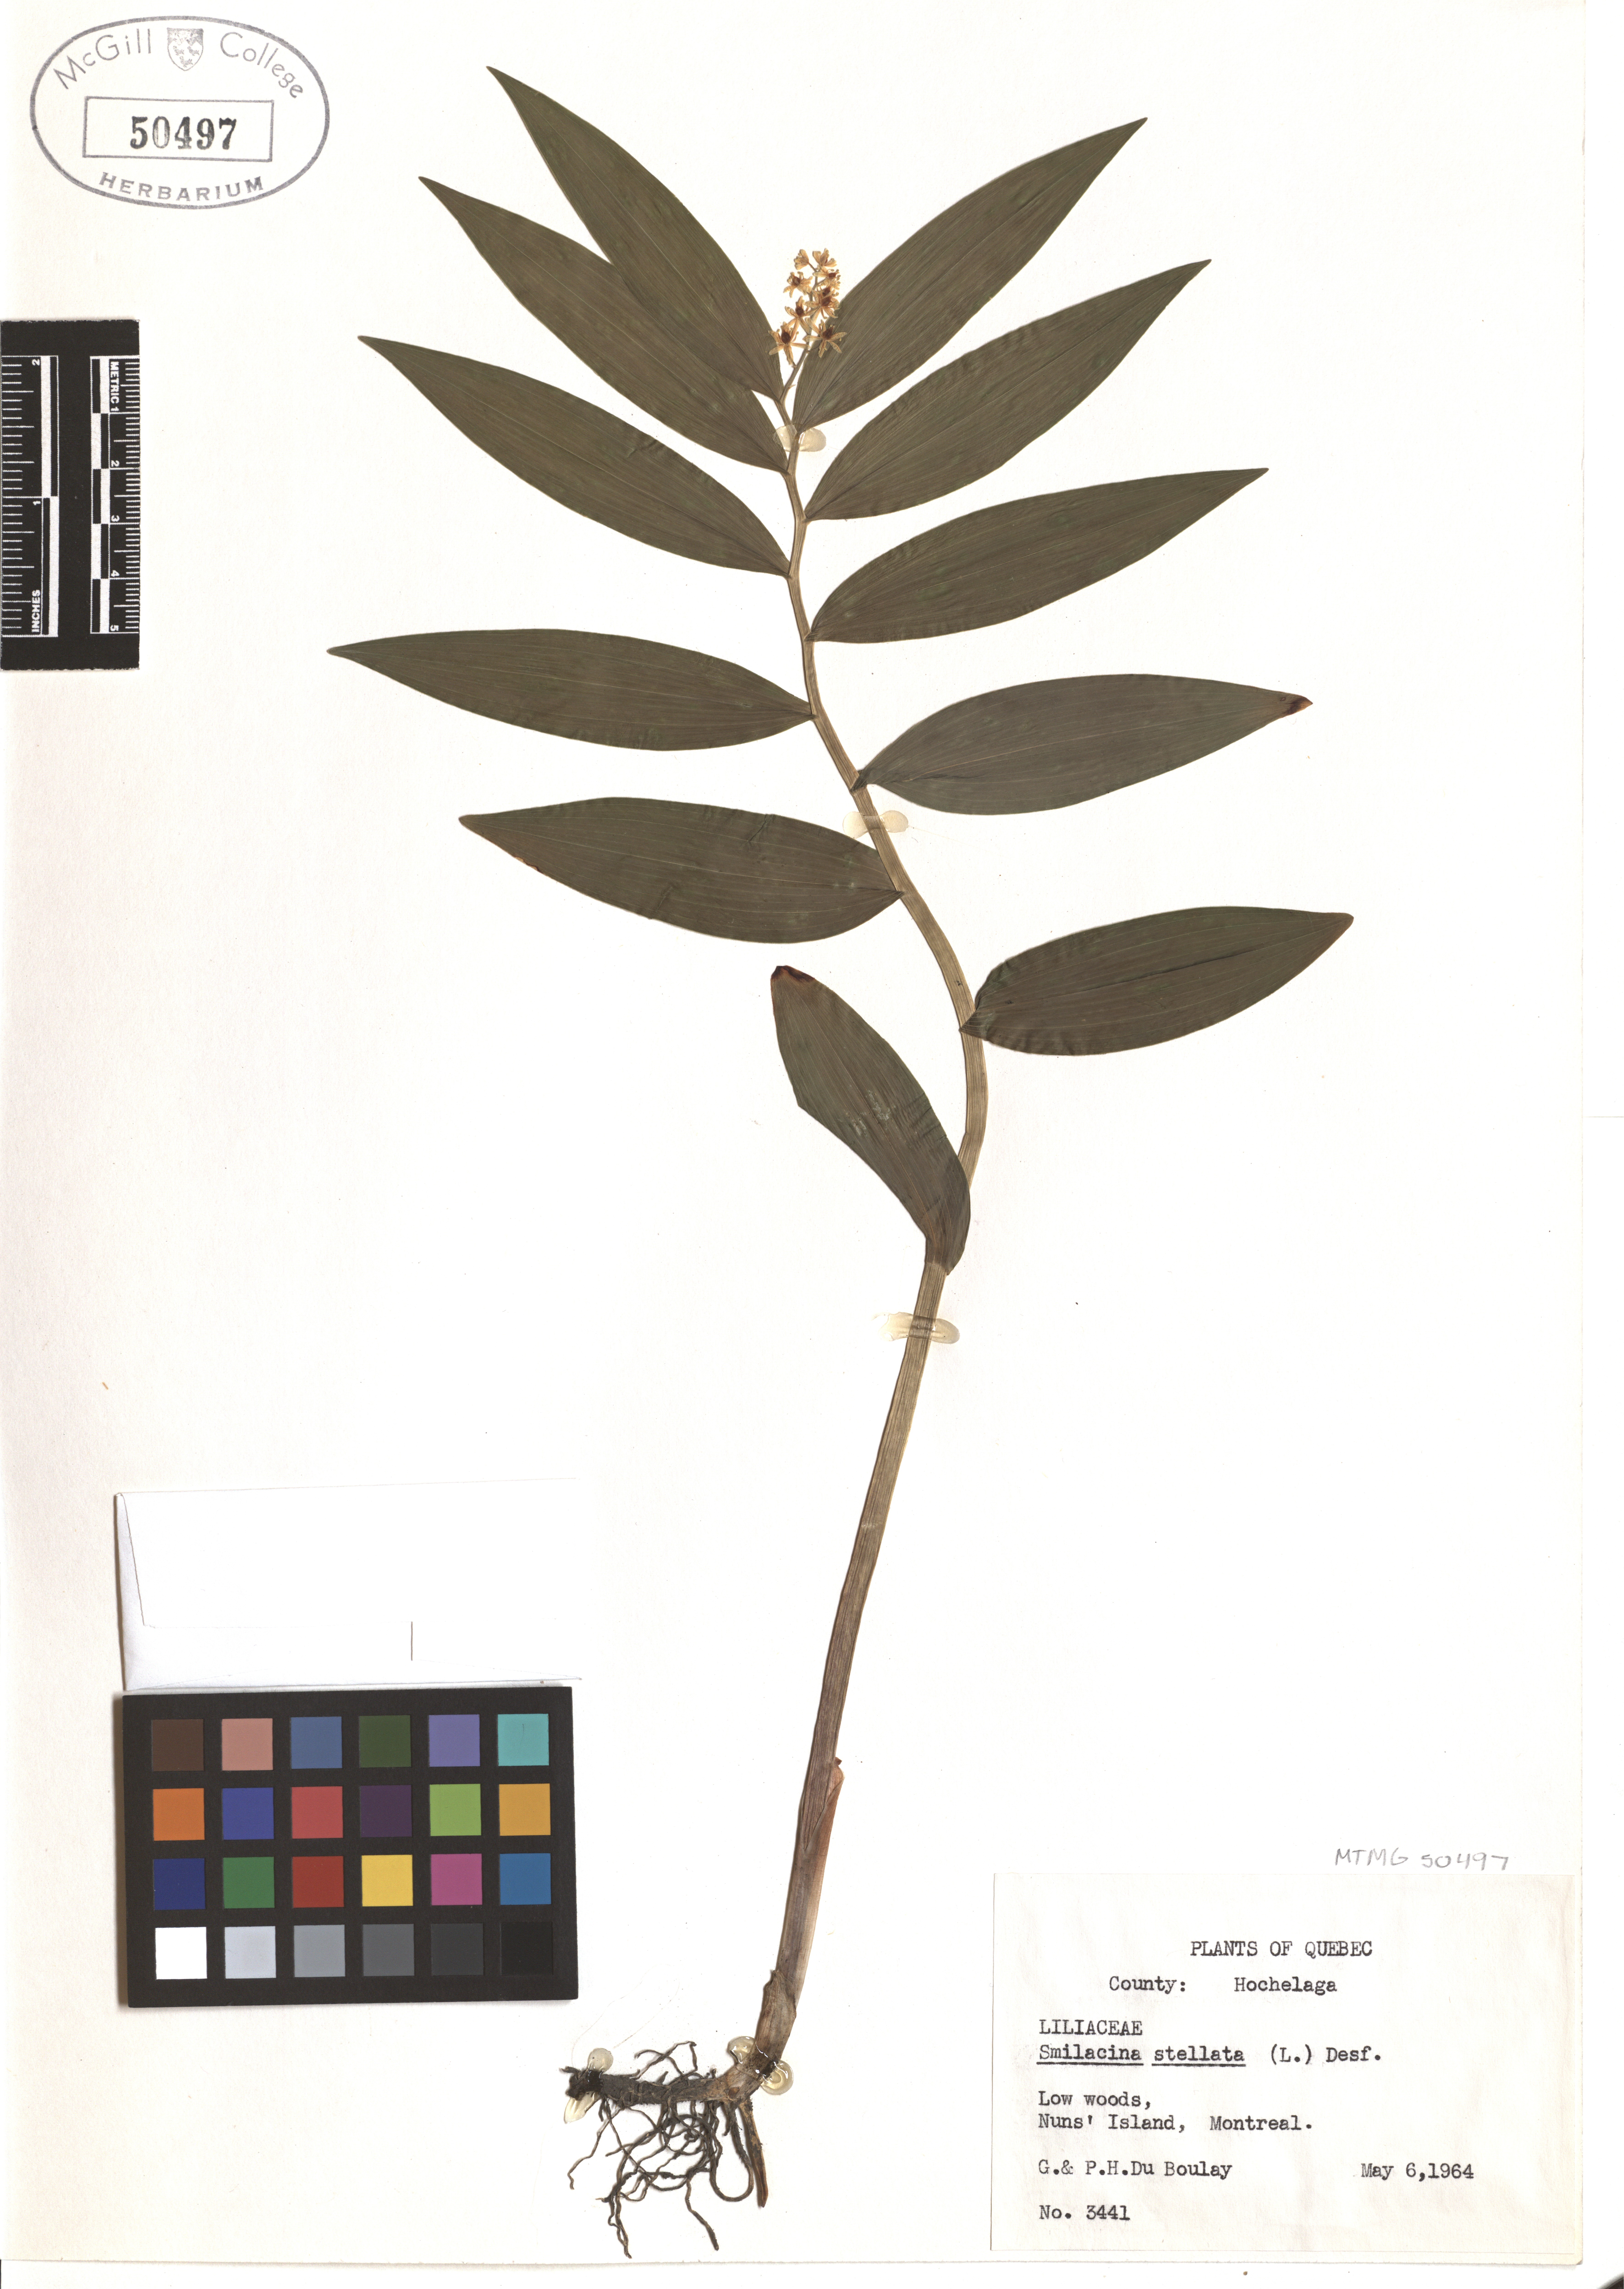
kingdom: Plantae
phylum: Tracheophyta
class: Liliopsida
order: Asparagales
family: Asparagaceae
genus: Maianthemum
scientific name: Maianthemum stellatum
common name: Little false solomon's seal
